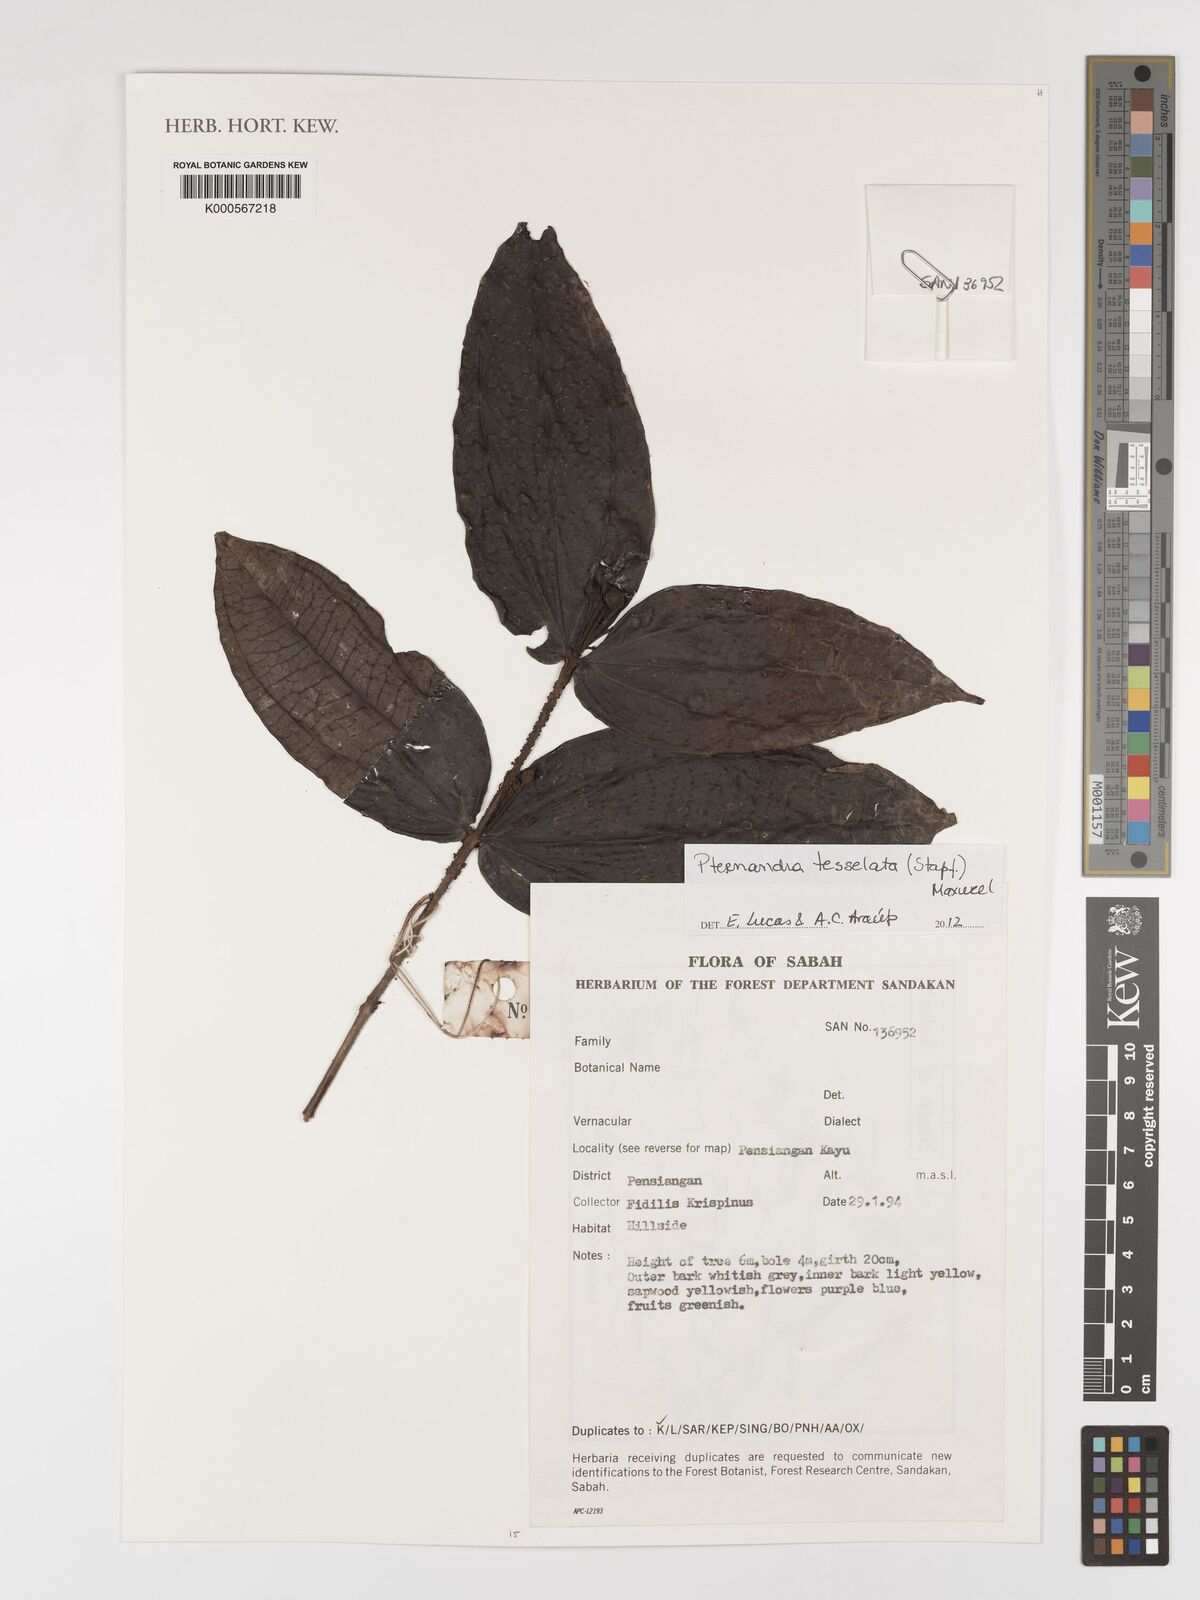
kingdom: Plantae
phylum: Tracheophyta
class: Magnoliopsida
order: Myrtales
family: Melastomataceae
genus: Pternandra
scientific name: Pternandra
